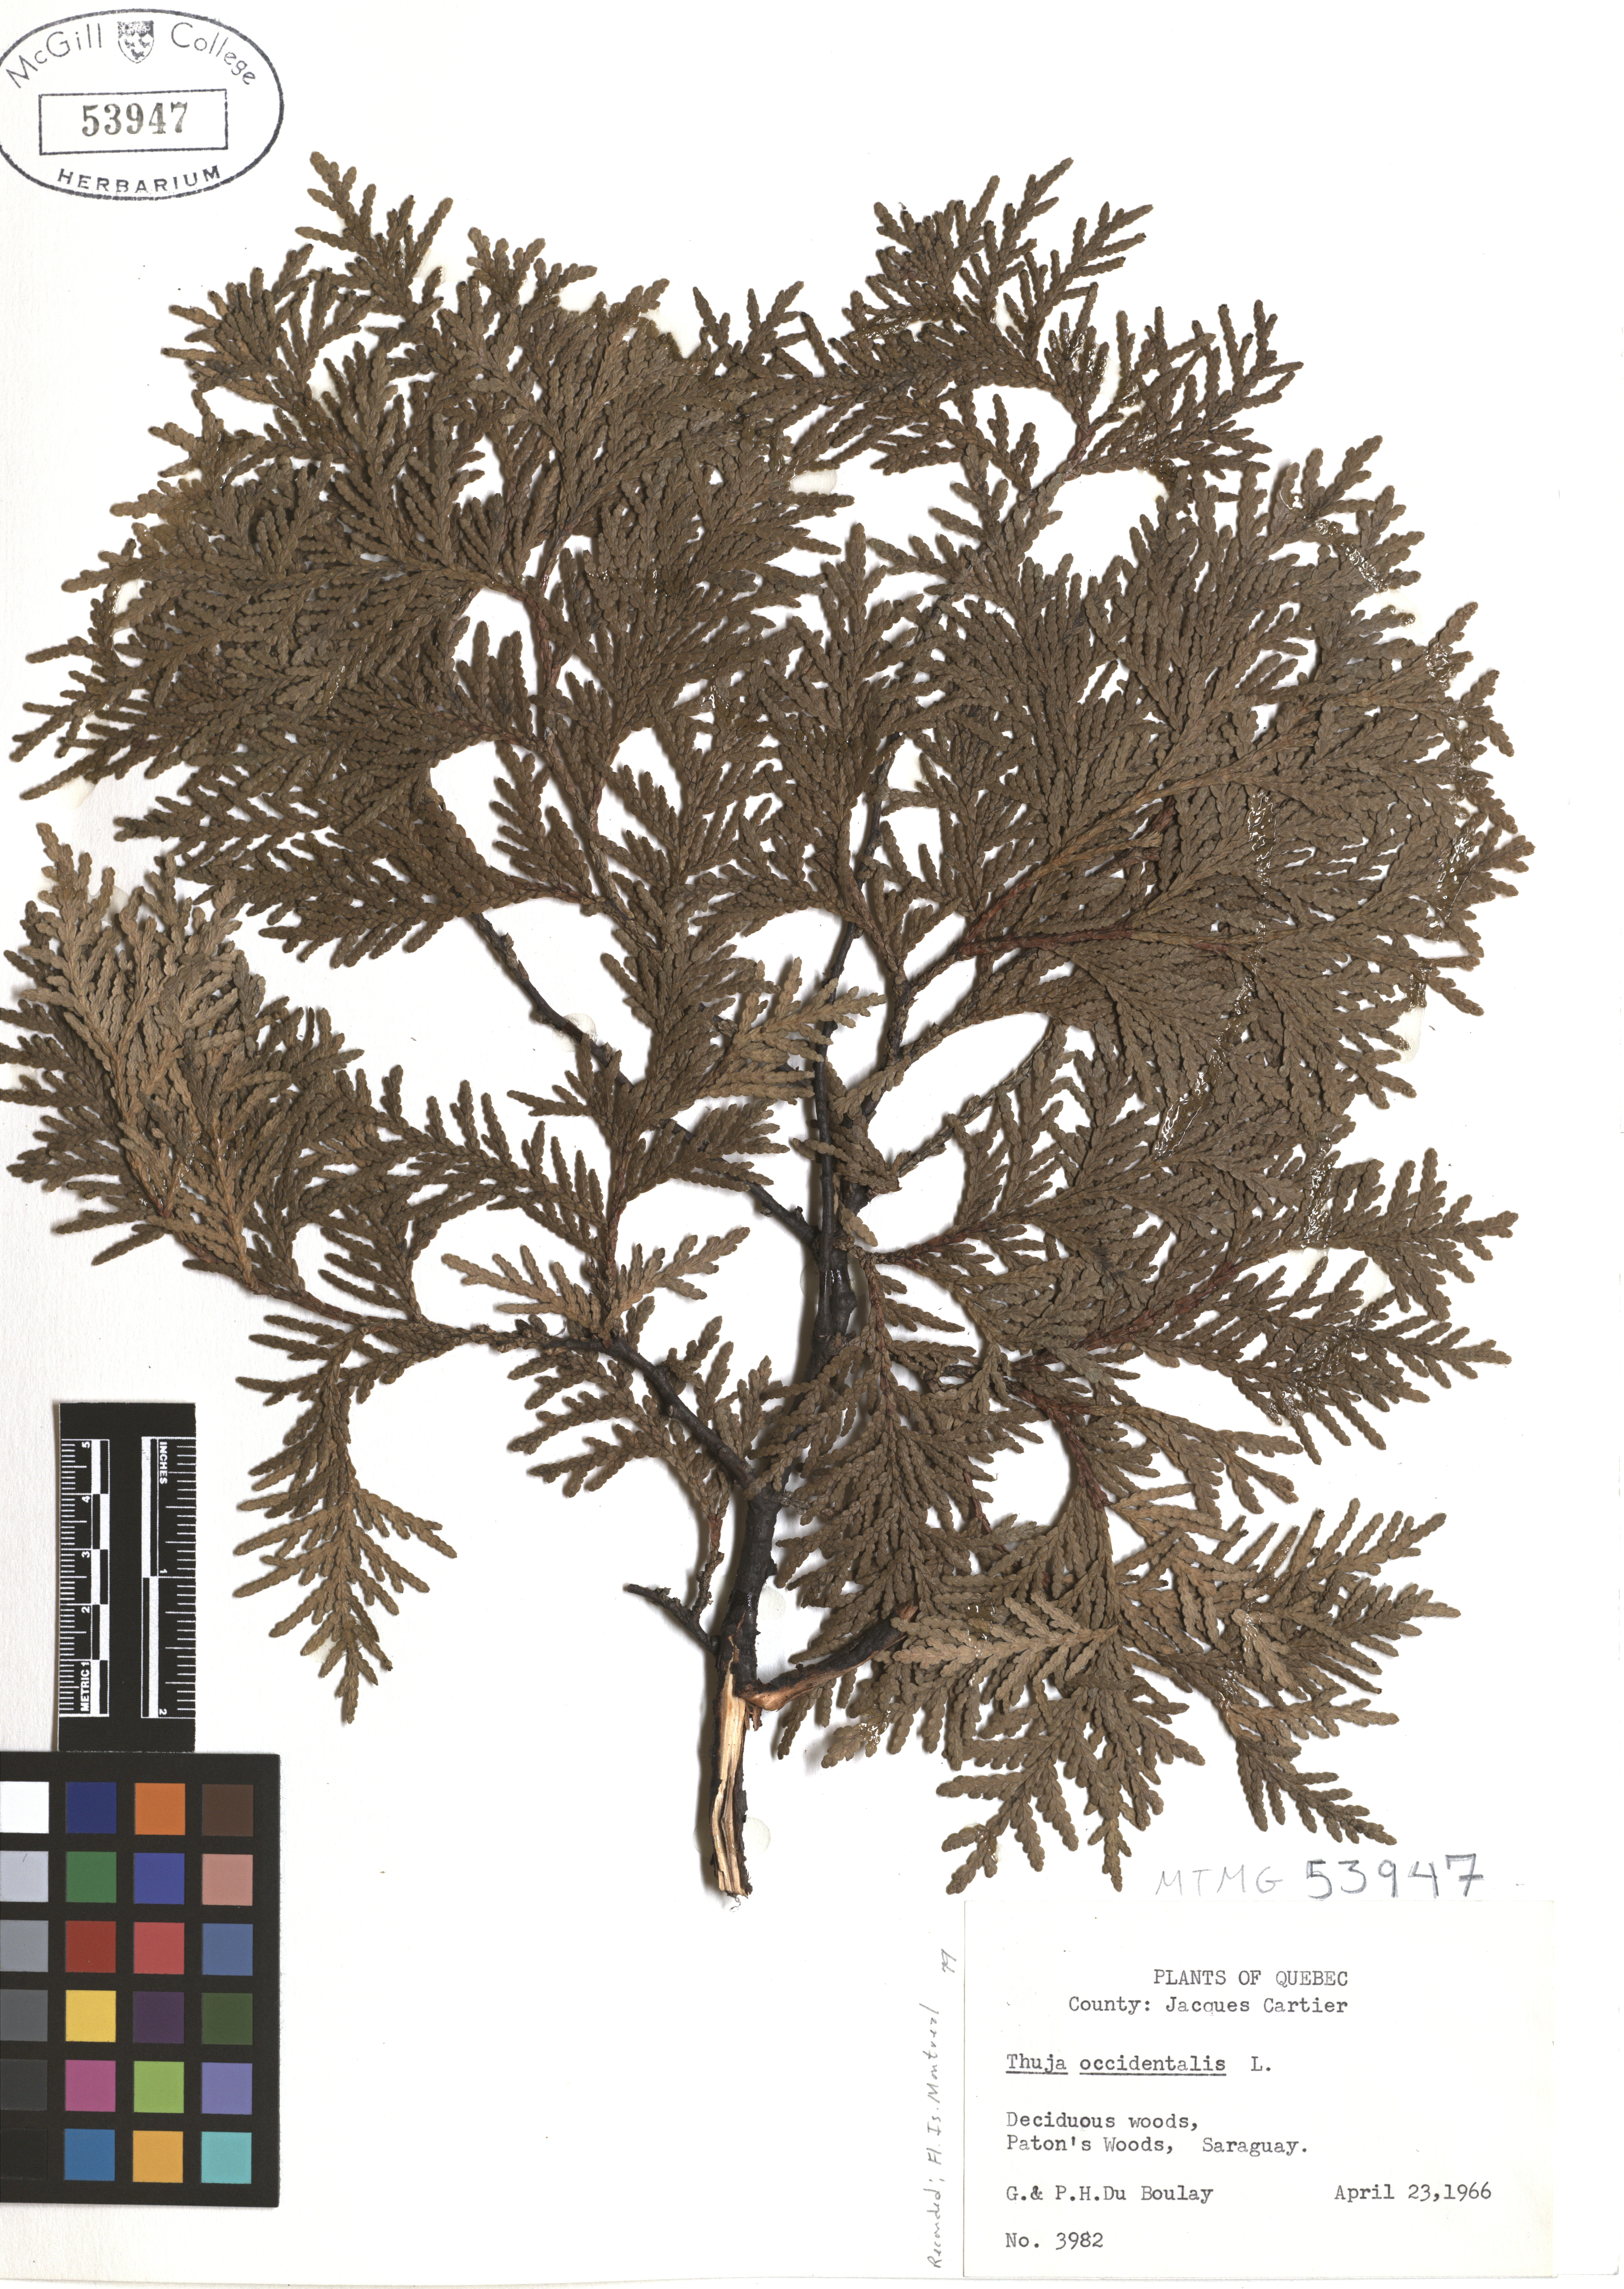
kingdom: Plantae
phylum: Tracheophyta
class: Pinopsida
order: Pinales
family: Cupressaceae
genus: Thuja
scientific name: Thuja occidentalis
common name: Northern white-cedar
